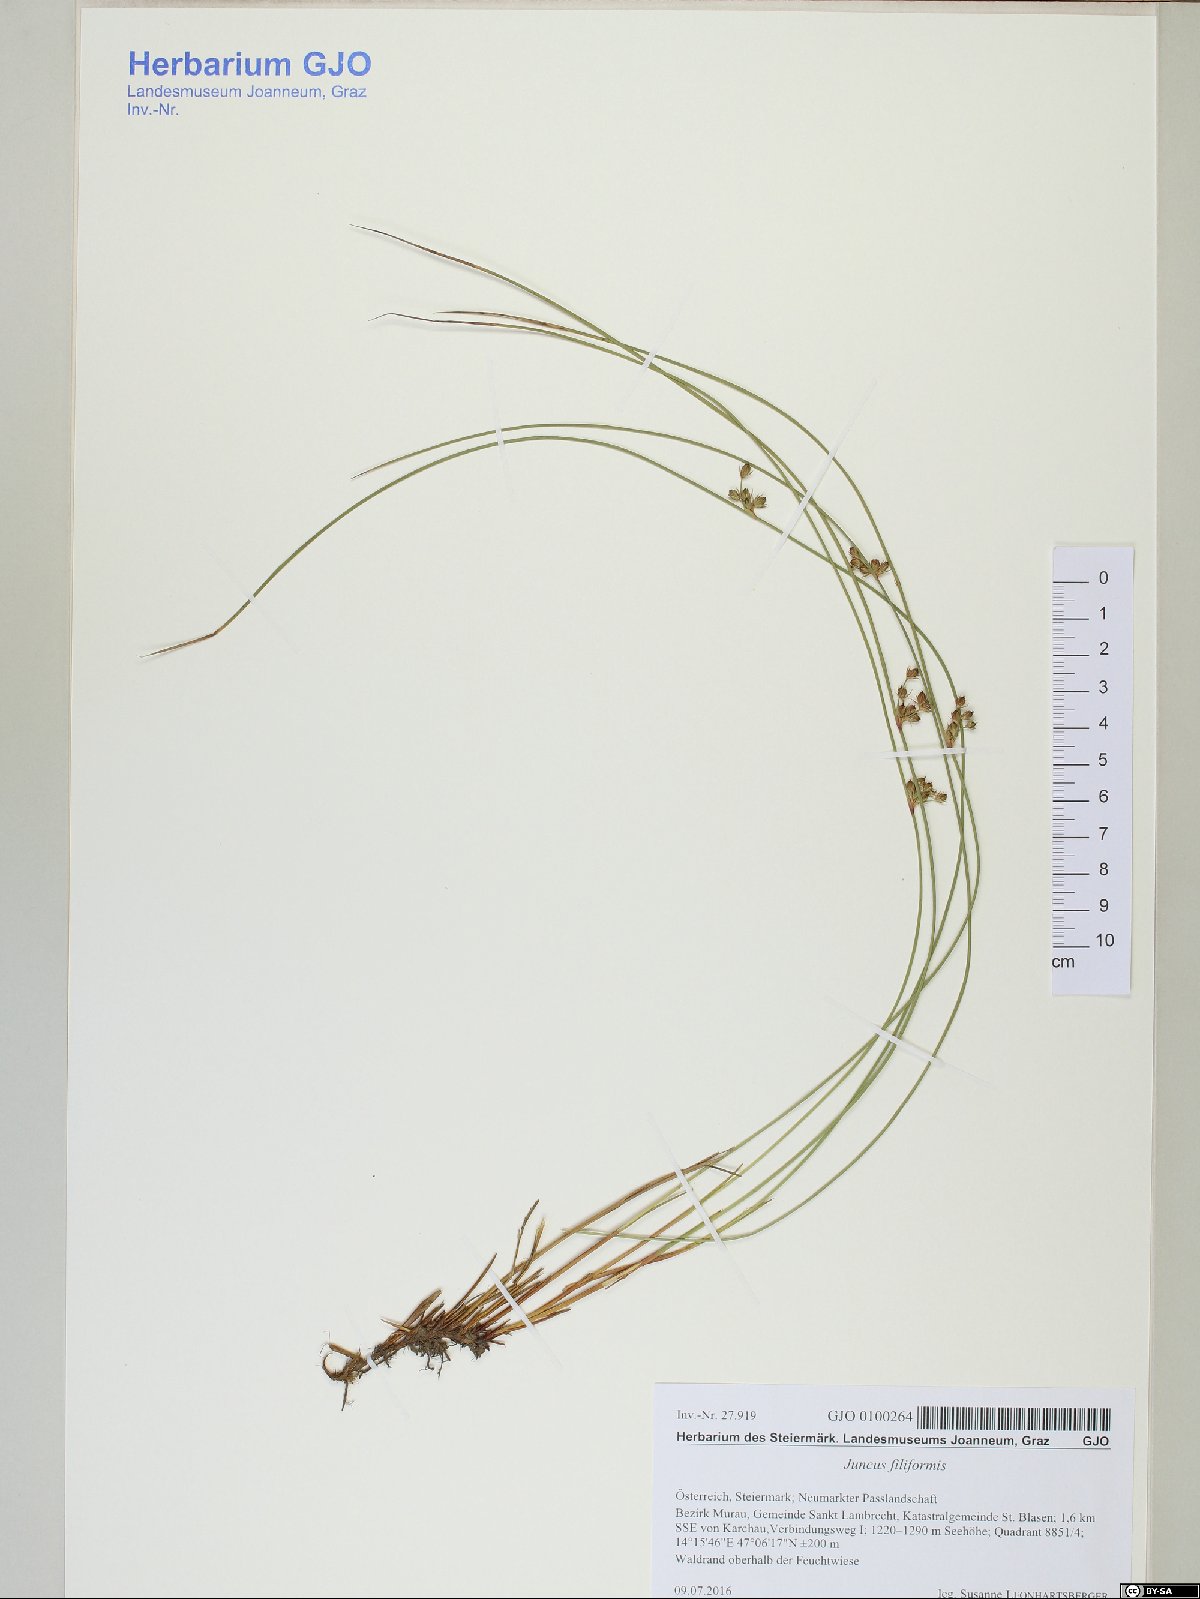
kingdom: Plantae
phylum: Tracheophyta
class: Liliopsida
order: Poales
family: Juncaceae
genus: Juncus
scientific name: Juncus filiformis
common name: Thread rush
